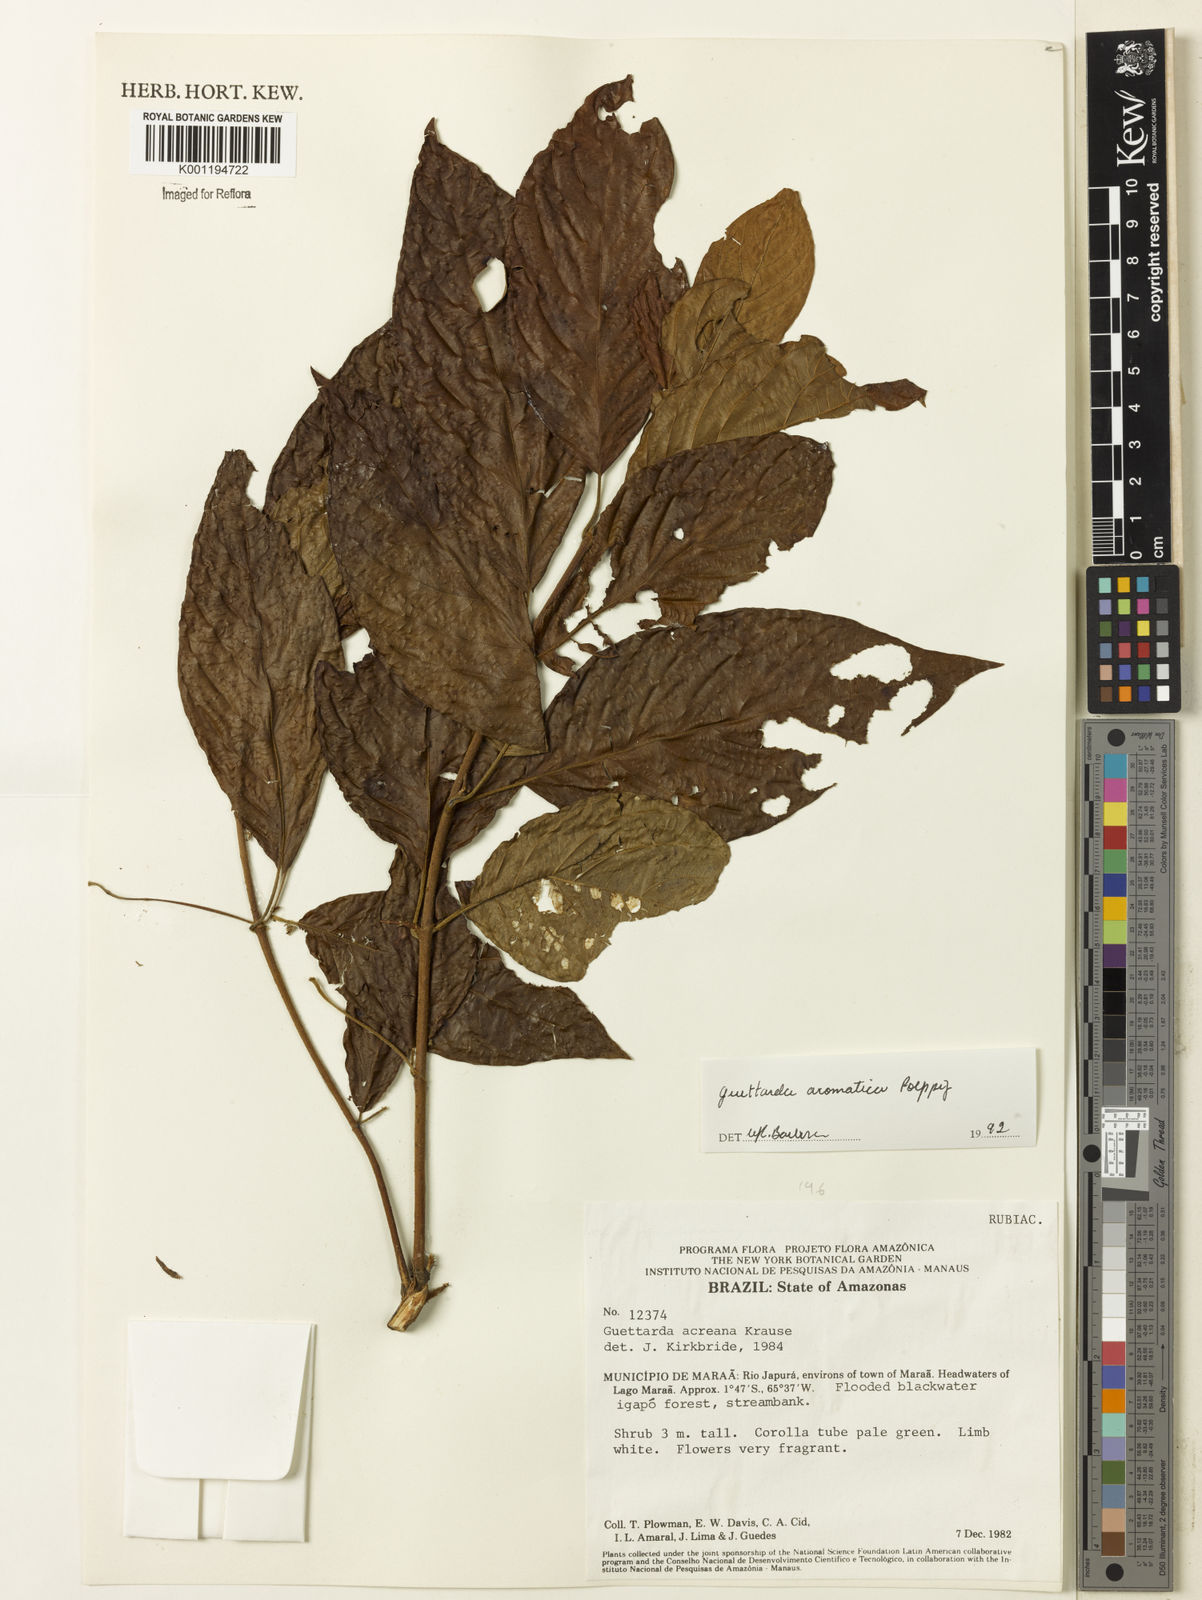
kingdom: Plantae
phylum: Tracheophyta
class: Magnoliopsida
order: Gentianales
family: Rubiaceae
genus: Guettarda
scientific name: Guettarda aromatica
